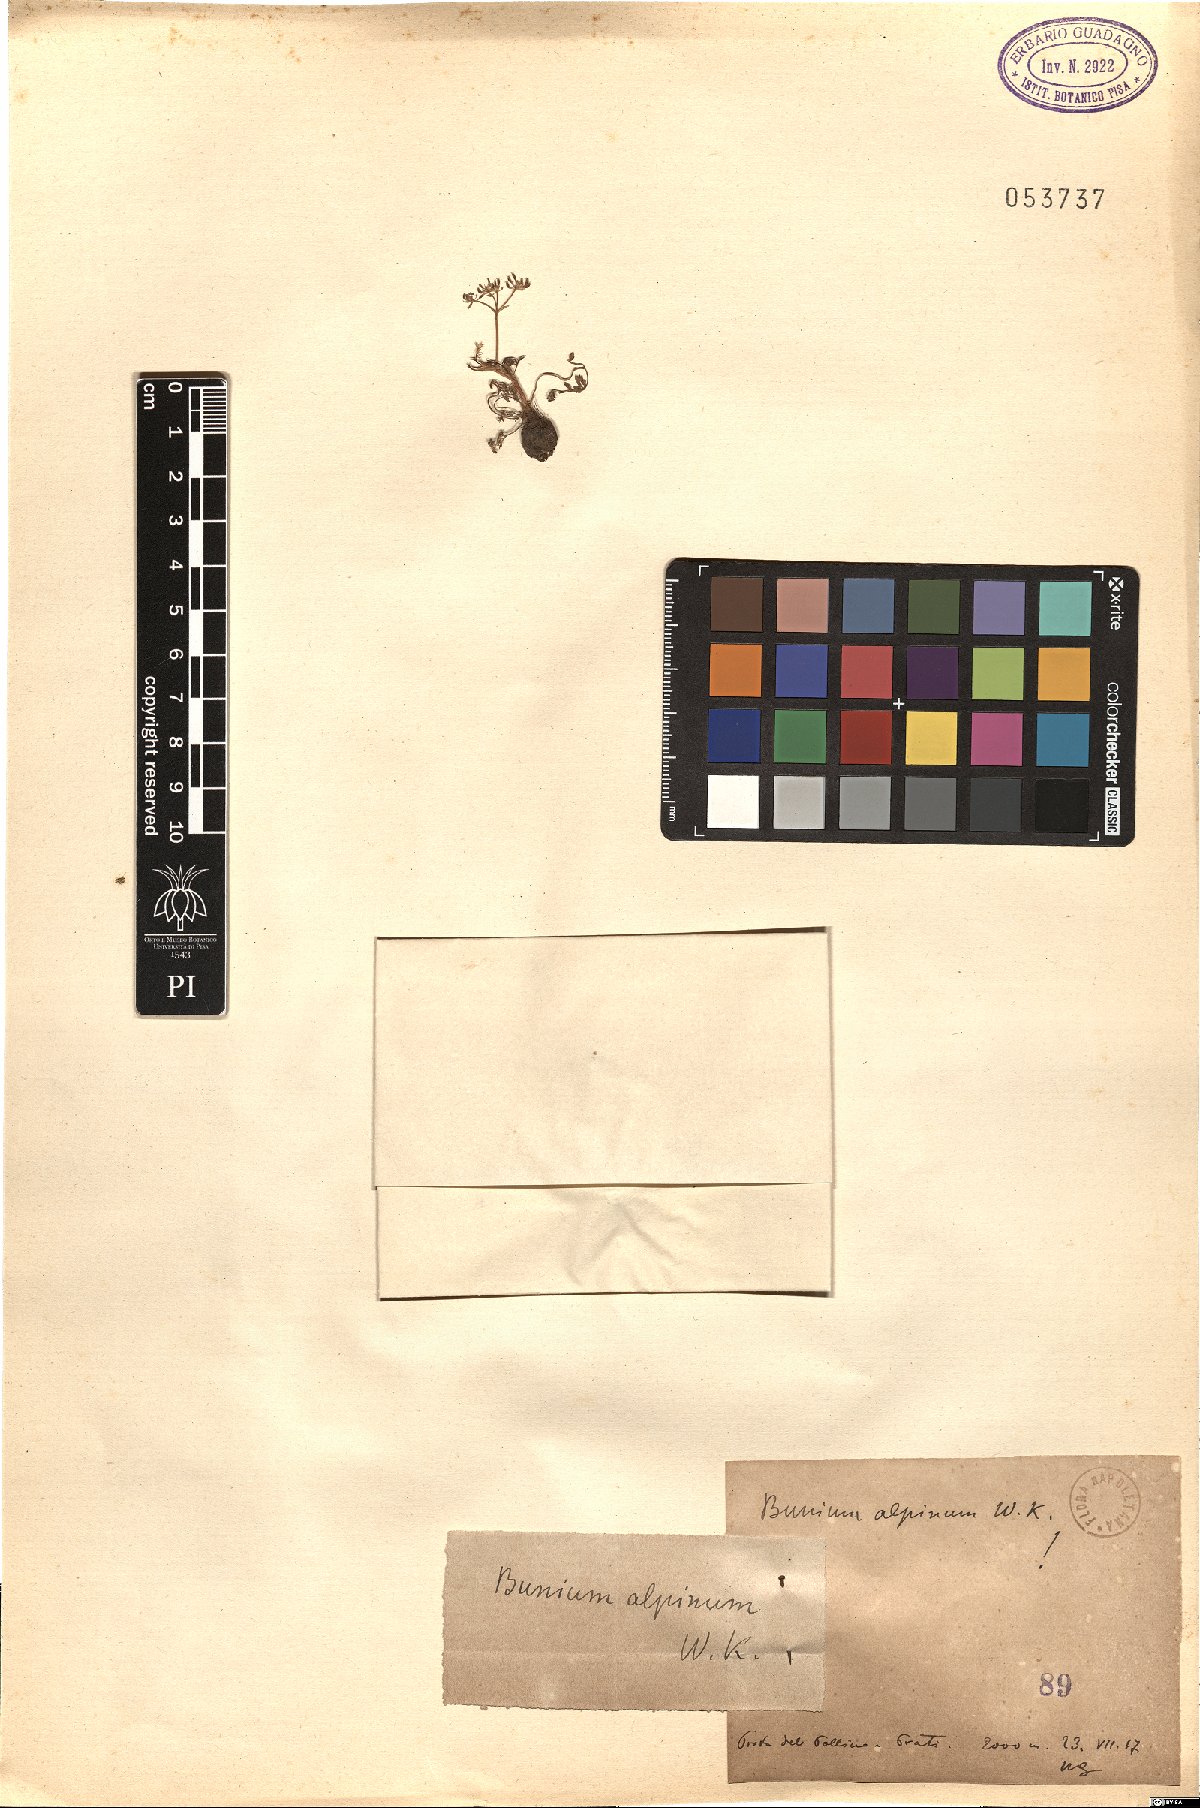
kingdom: Plantae
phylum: Tracheophyta
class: Magnoliopsida
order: Apiales
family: Apiaceae
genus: Bunium
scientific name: Bunium alpinum
